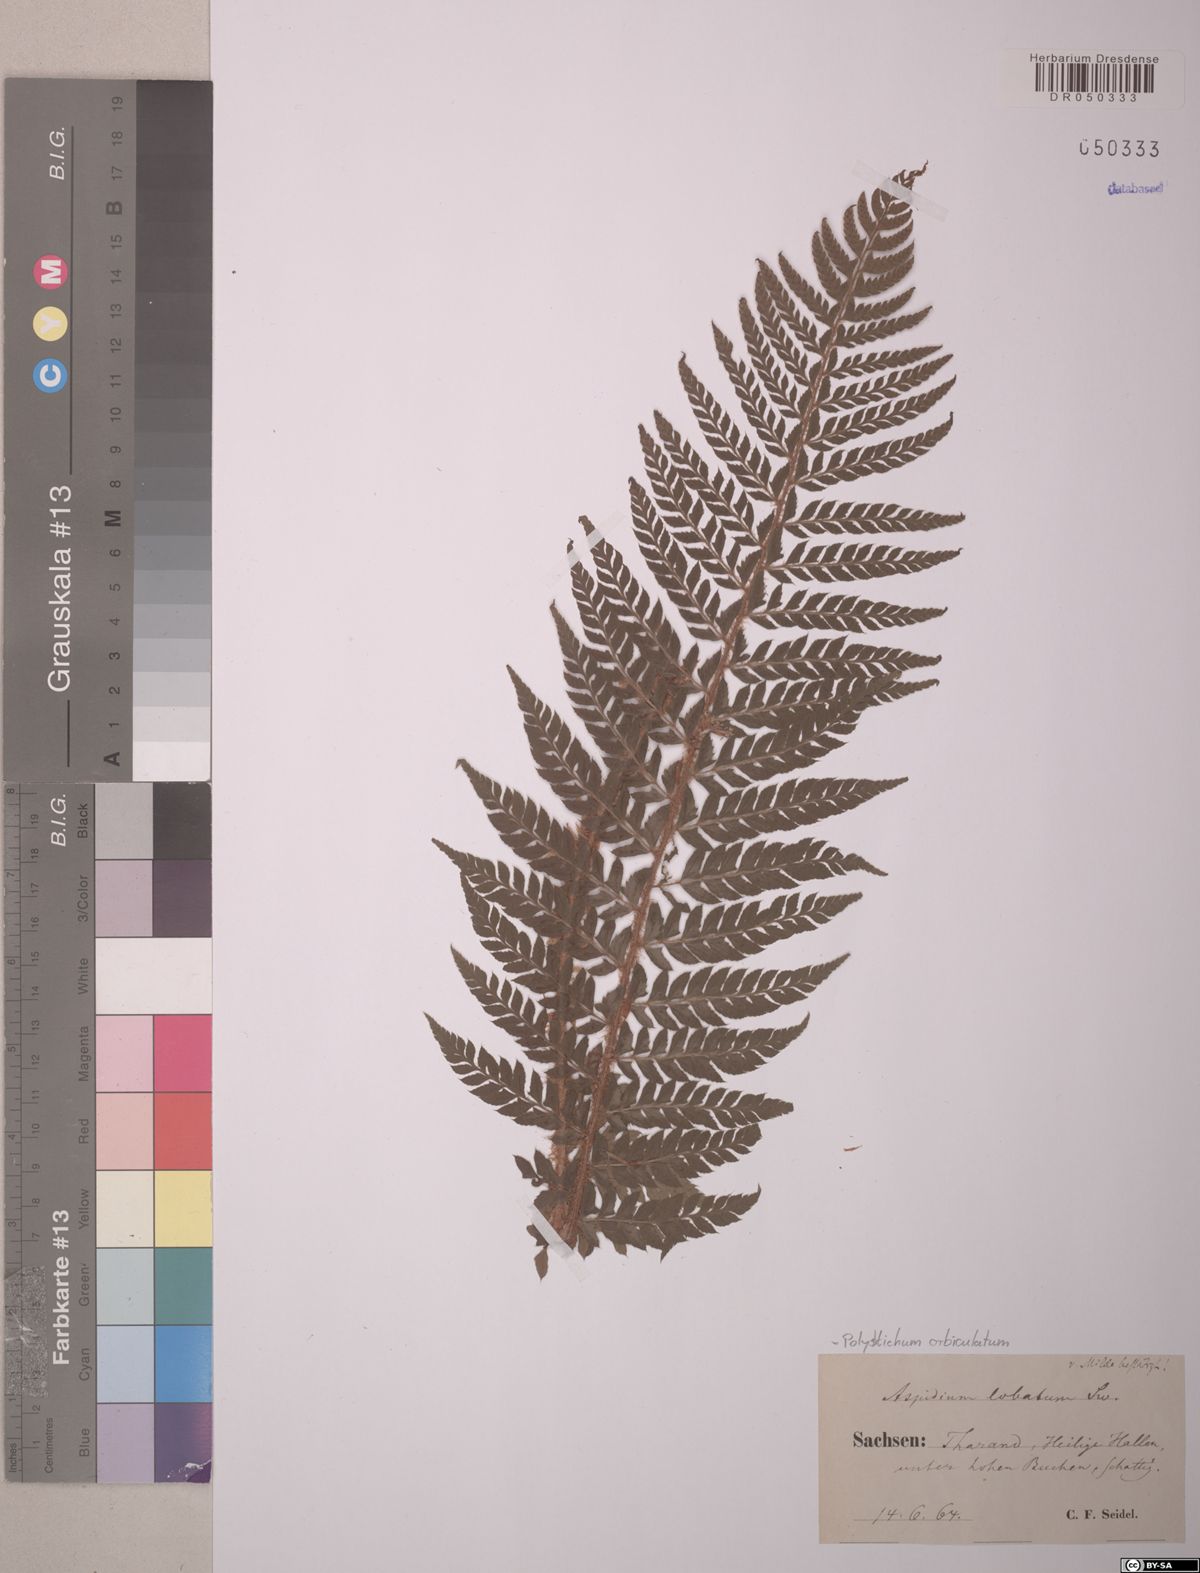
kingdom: Plantae
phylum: Tracheophyta
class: Polypodiopsida
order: Polypodiales
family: Dryopteridaceae
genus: Polystichum
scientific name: Polystichum aculeatum
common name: Hard shield-fern
